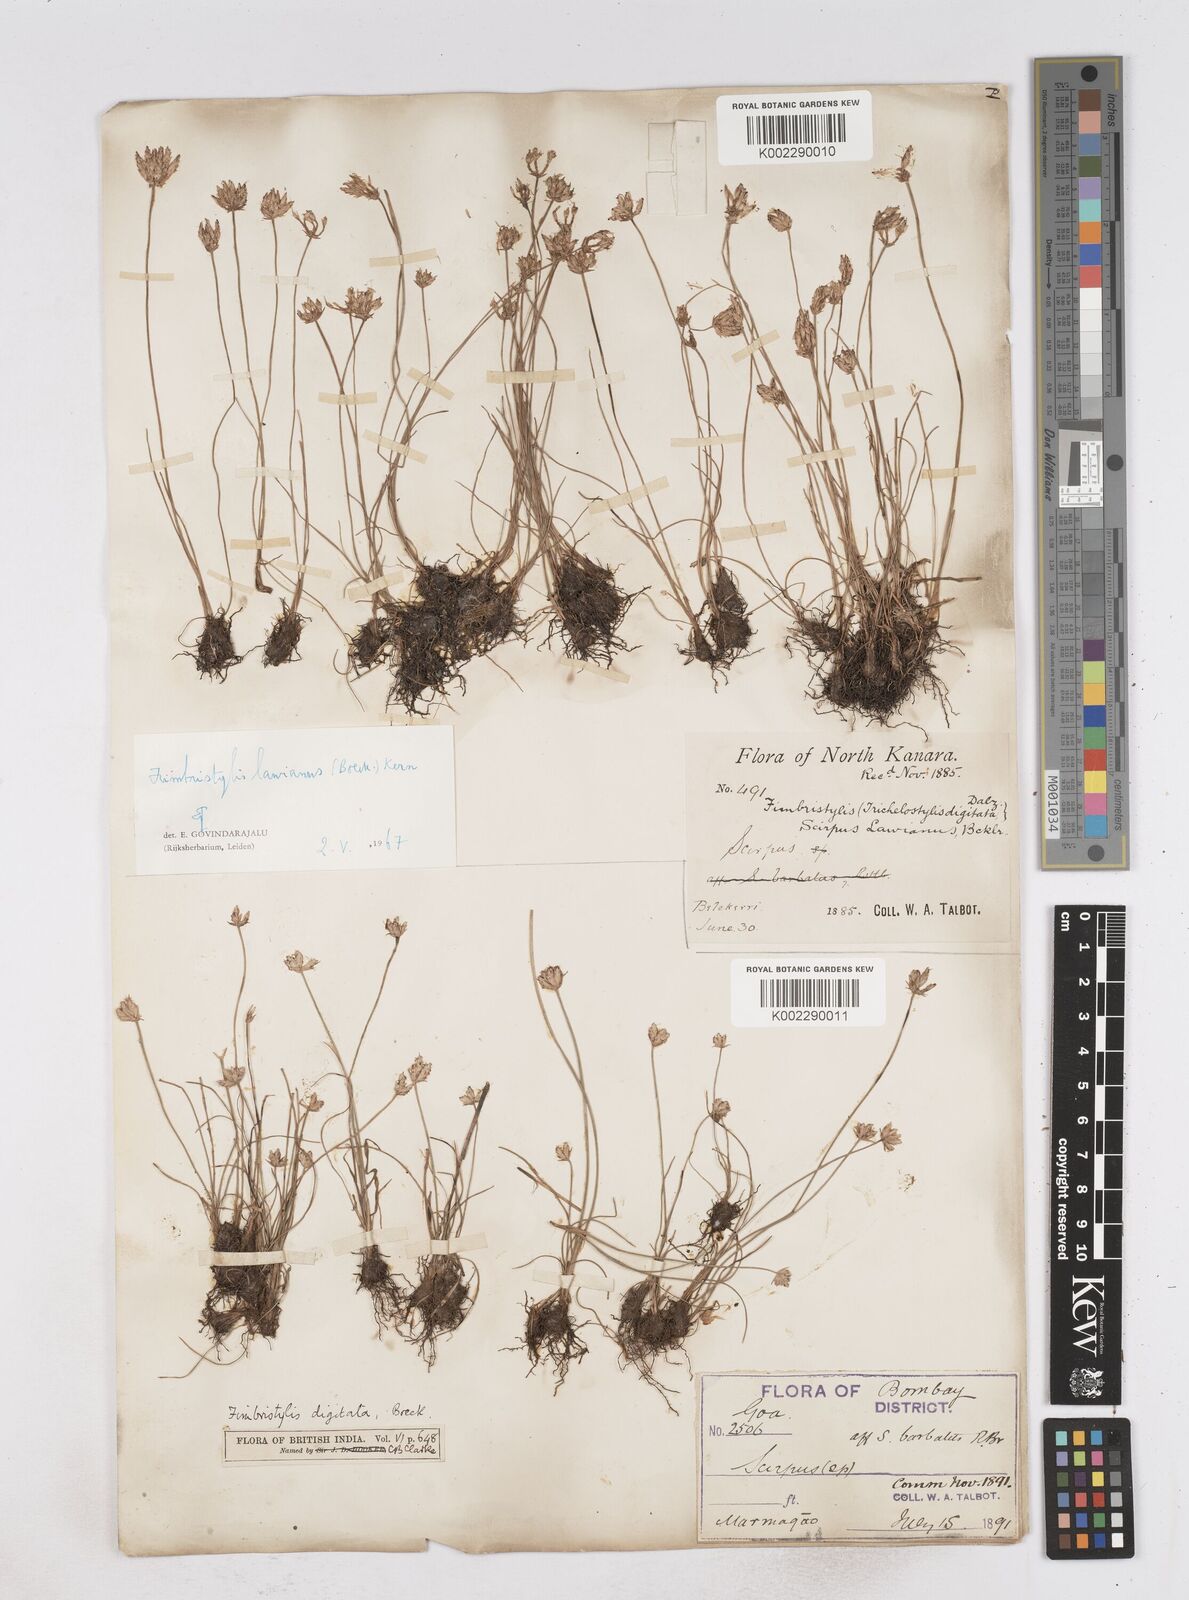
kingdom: Plantae
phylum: Tracheophyta
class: Liliopsida
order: Poales
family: Cyperaceae
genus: Fimbristylis
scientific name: Fimbristylis lawiana
